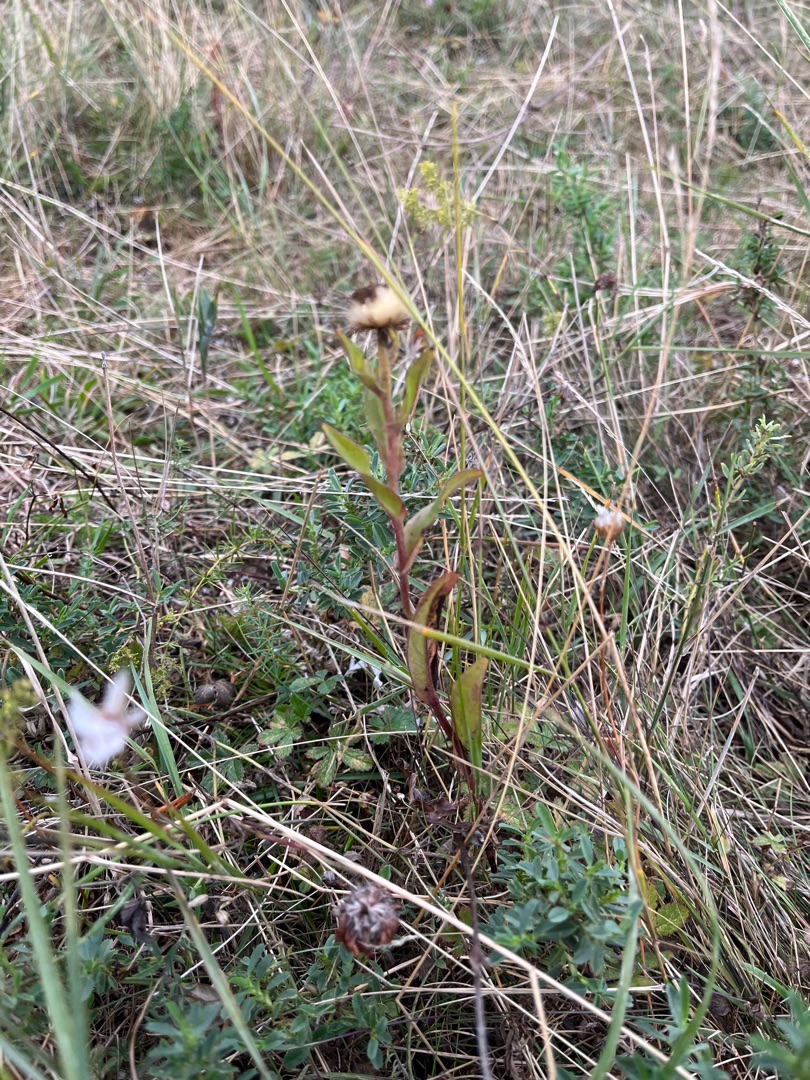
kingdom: Plantae
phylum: Tracheophyta
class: Magnoliopsida
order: Asterales
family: Asteraceae
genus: Pentanema
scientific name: Pentanema britannicum
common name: Soløje-alant
